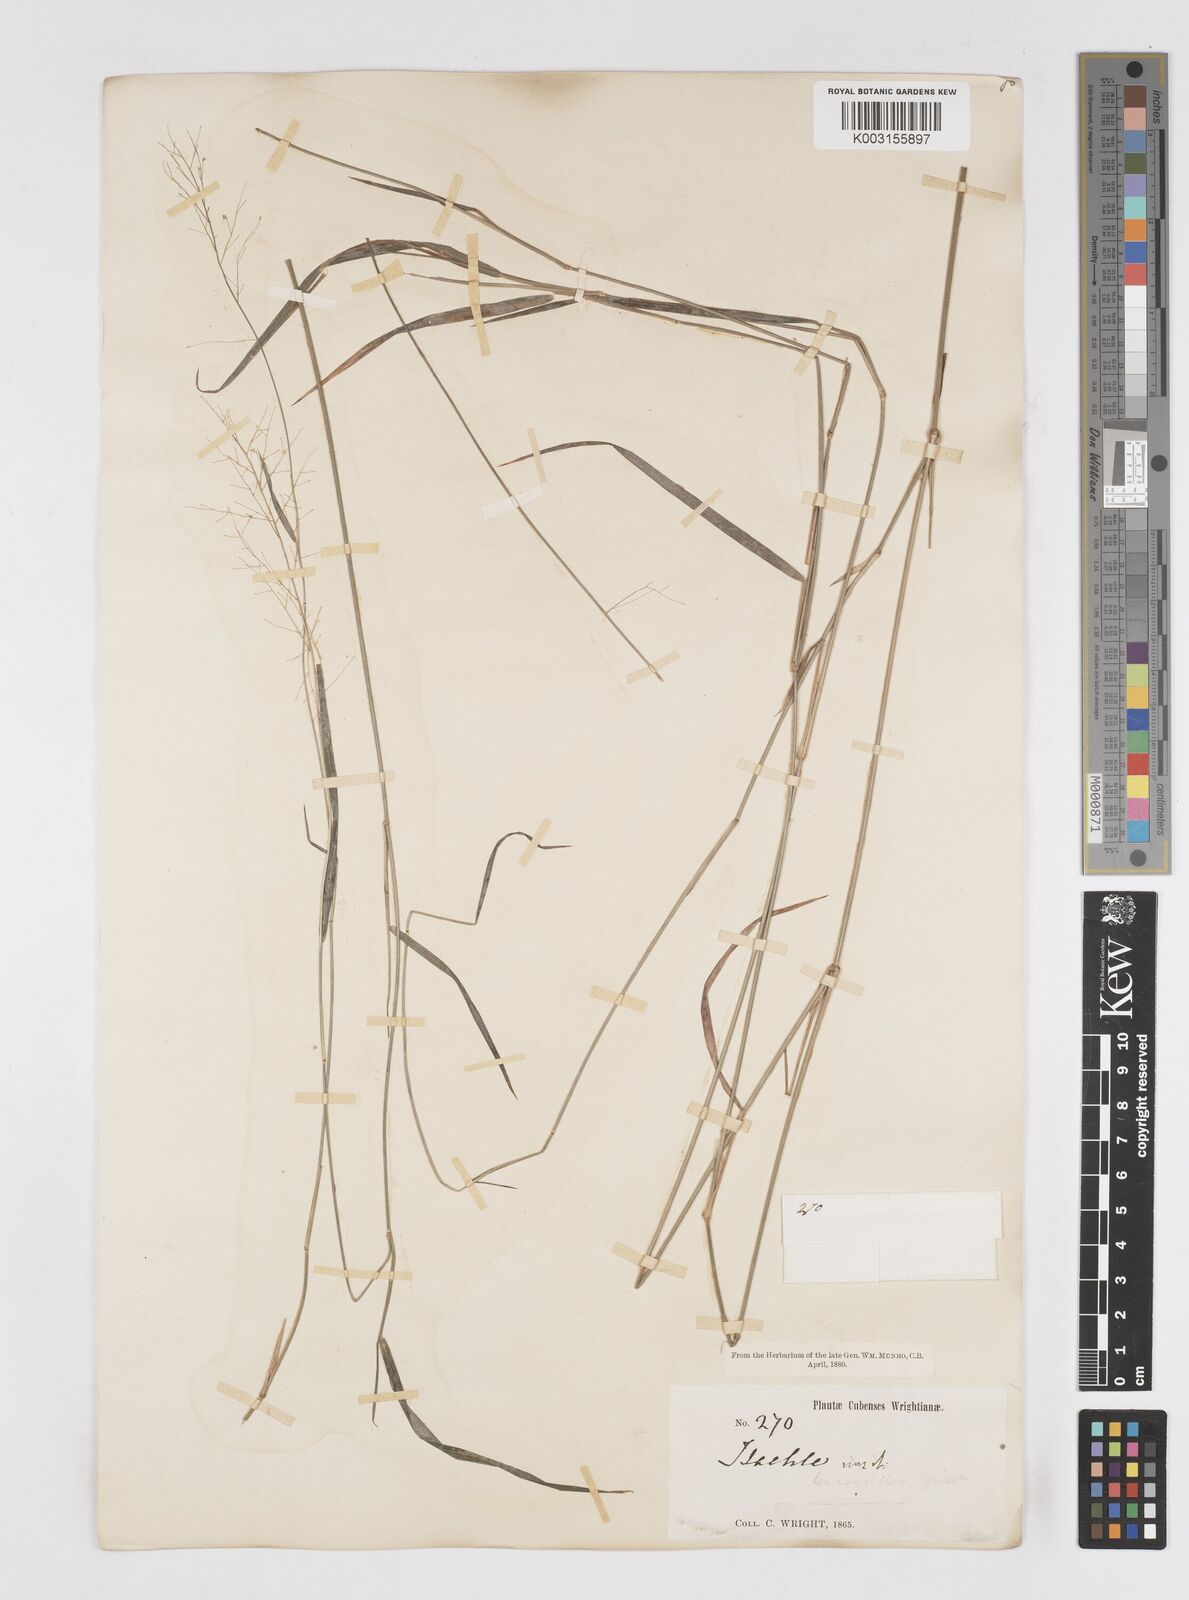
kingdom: Plantae
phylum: Tracheophyta
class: Liliopsida
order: Poales
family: Poaceae
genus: Isachne
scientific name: Isachne leersioides
